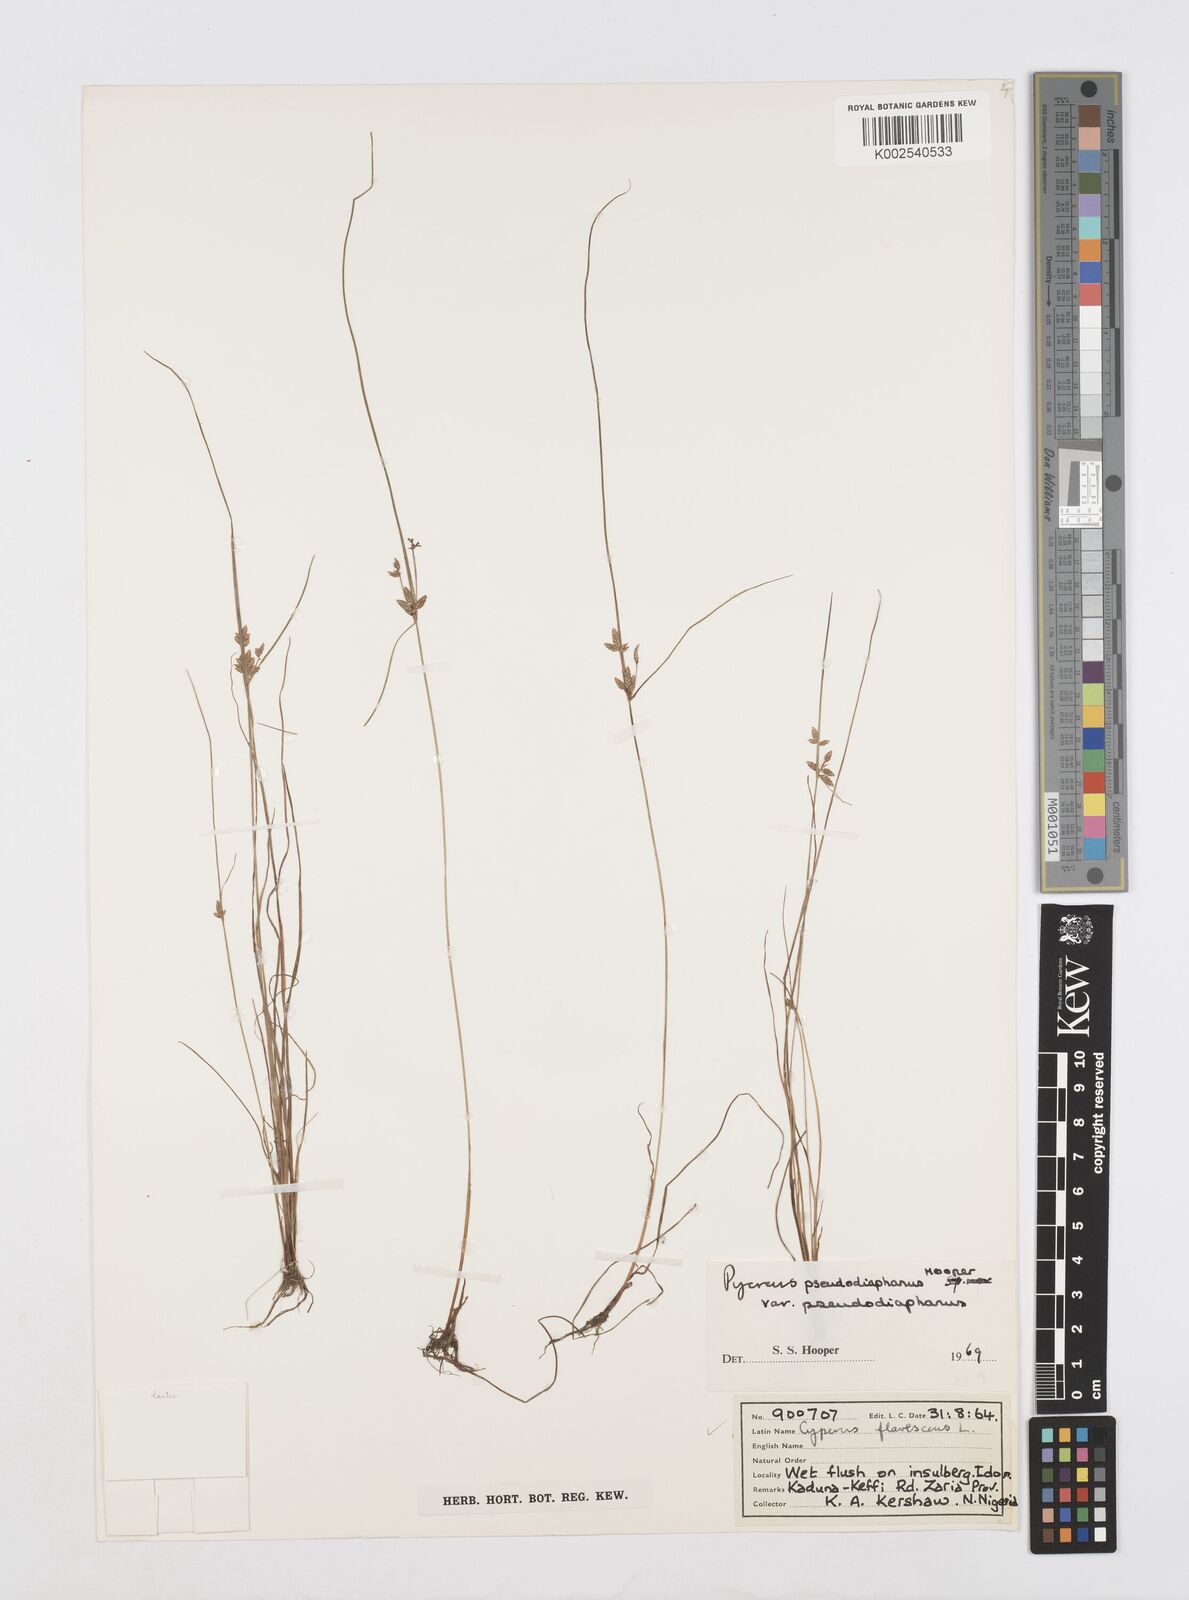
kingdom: Plantae
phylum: Tracheophyta
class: Liliopsida
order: Poales
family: Cyperaceae
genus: Cyperus
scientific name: Cyperus pseudodiaphanus
